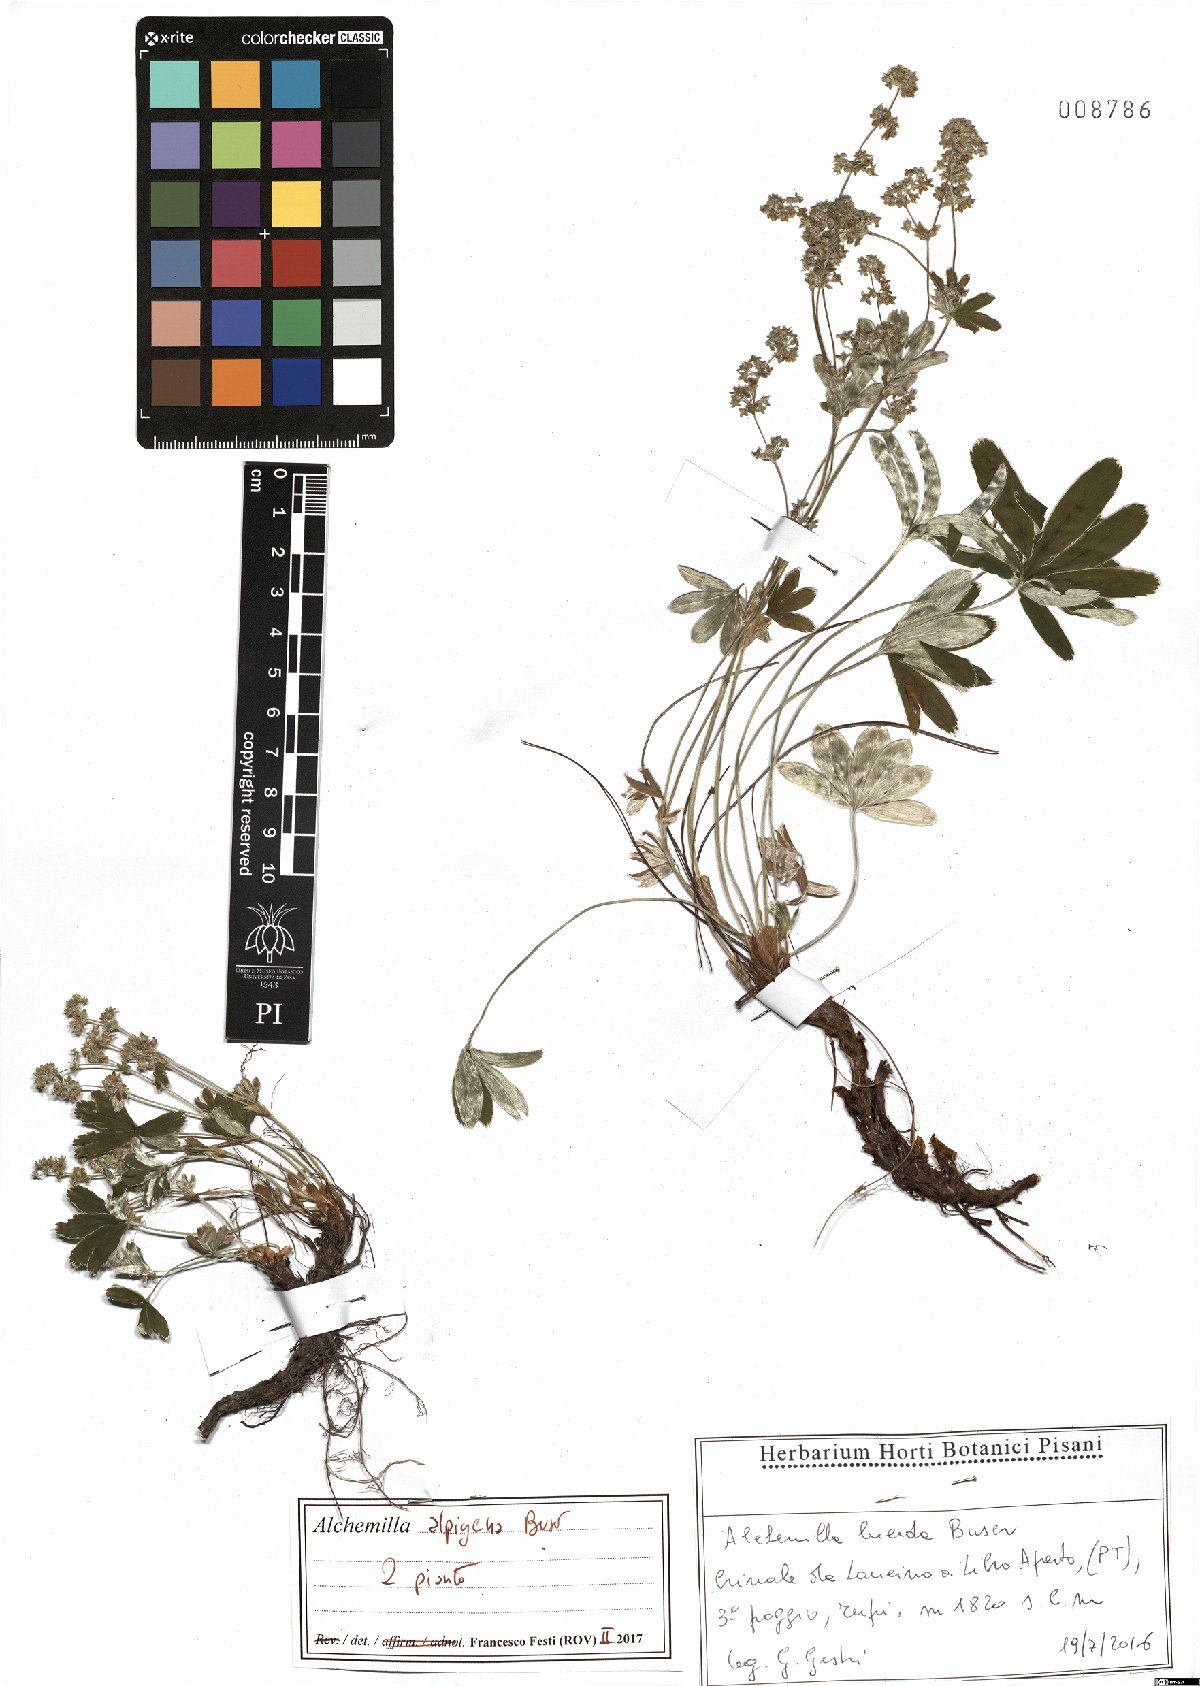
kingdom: Plantae
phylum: Tracheophyta
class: Magnoliopsida
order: Rosales
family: Rosaceae
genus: Alchemilla
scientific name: Alchemilla alpigena
